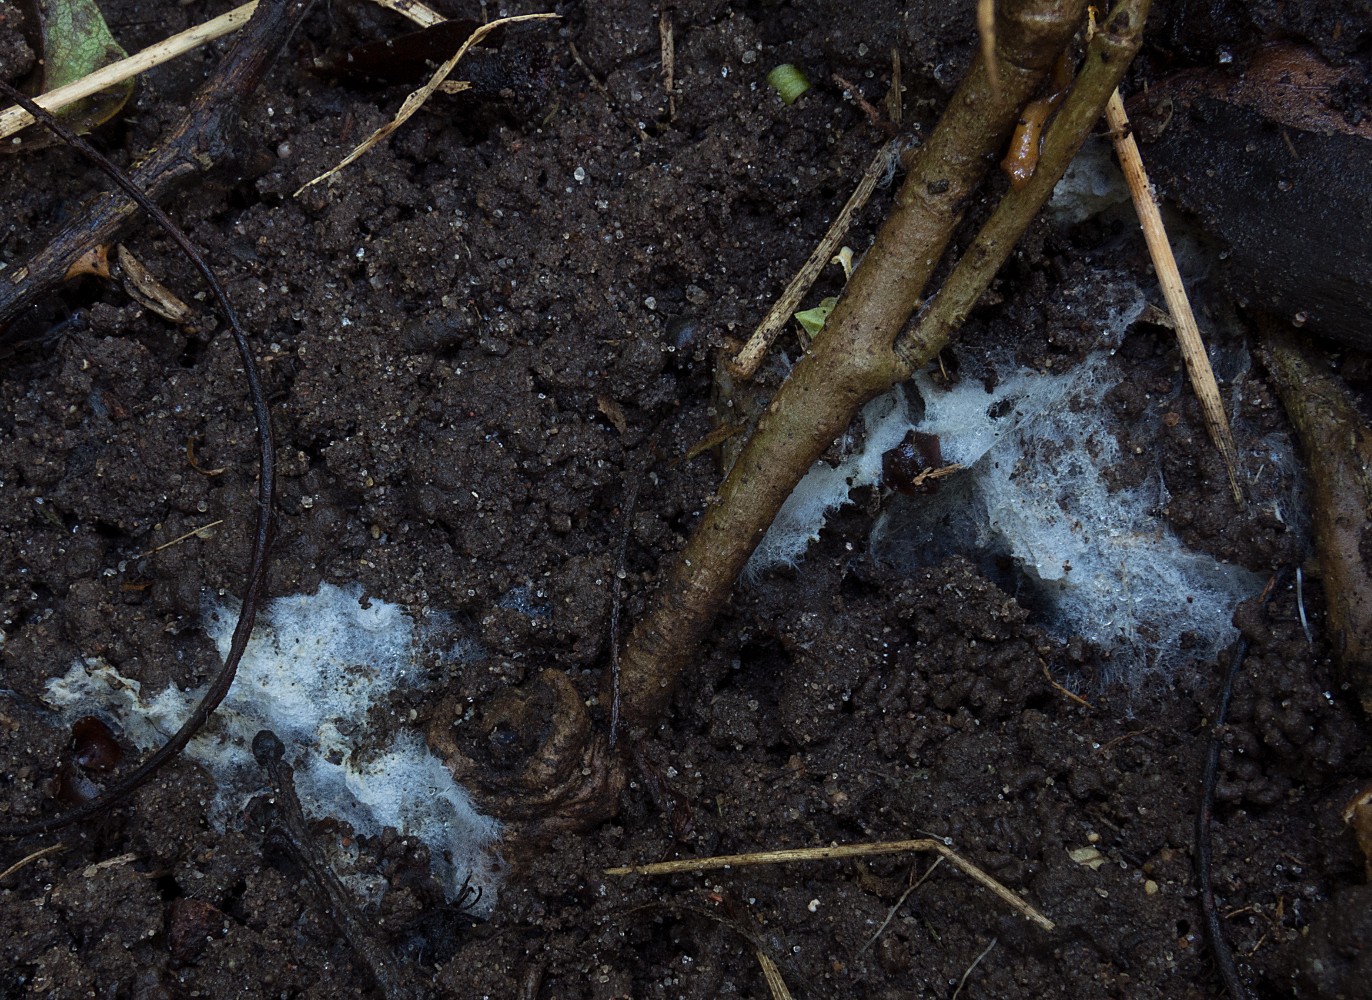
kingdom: Fungi
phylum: Basidiomycota
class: Agaricomycetes
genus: Trechinothus
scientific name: Trechinothus smardae
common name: krathinde
